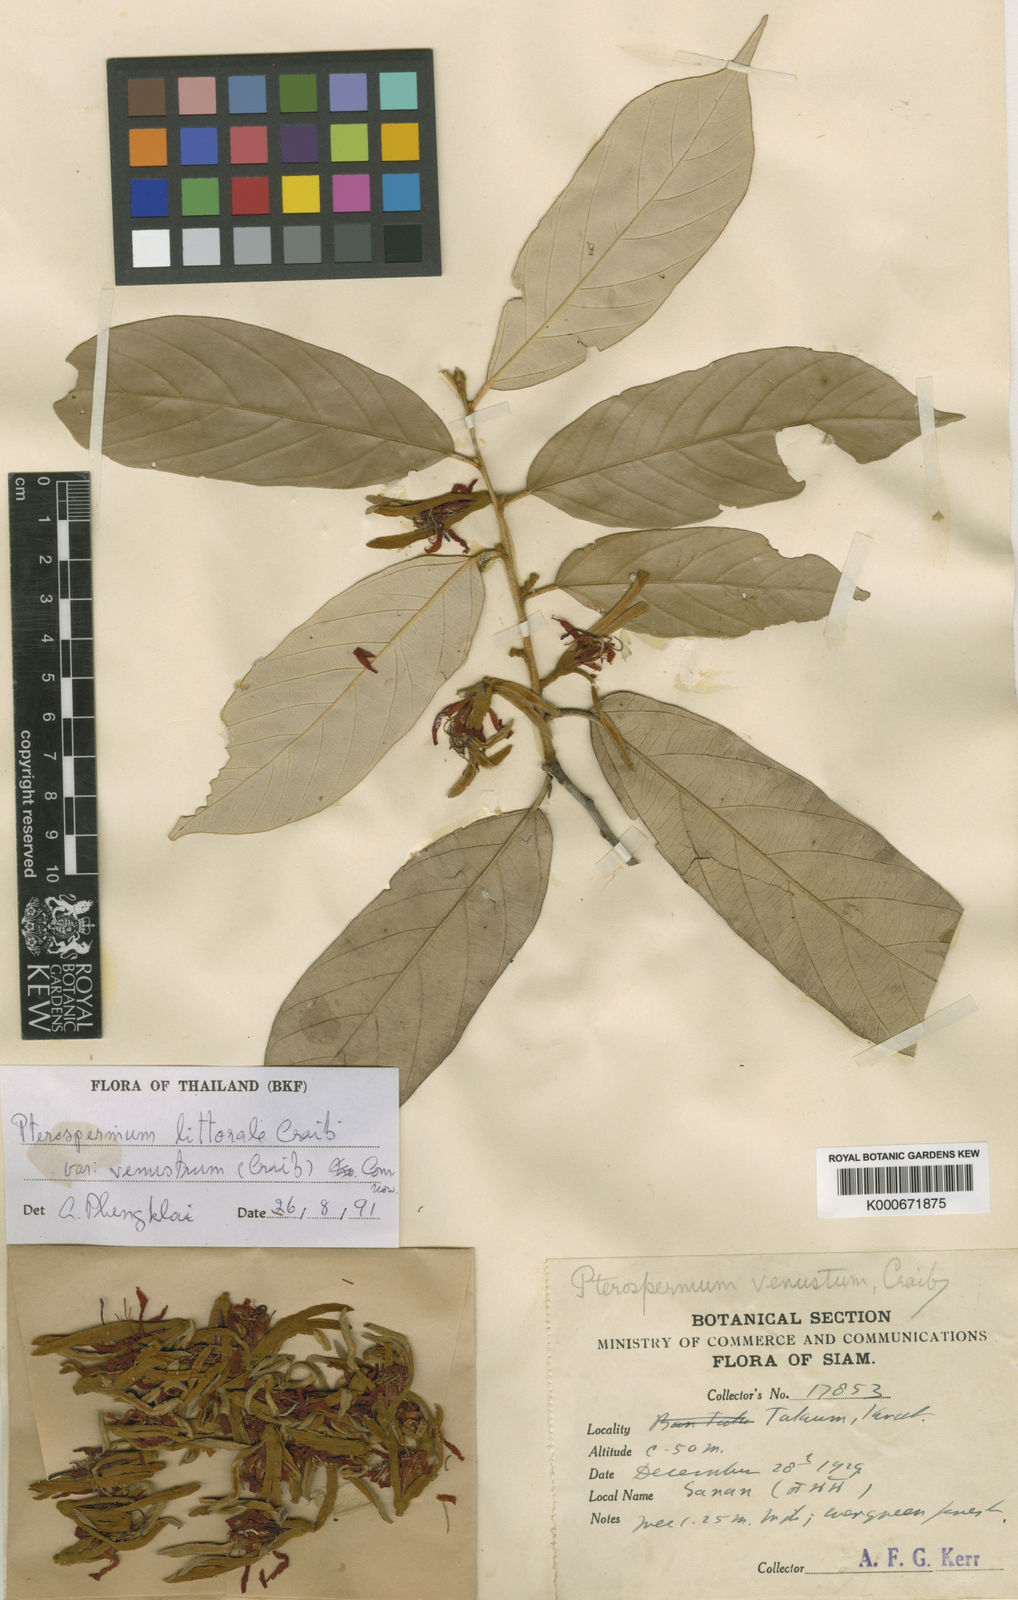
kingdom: Plantae
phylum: Tracheophyta
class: Magnoliopsida
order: Malvales
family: Malvaceae
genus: Pterospermum
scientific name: Pterospermum littorale
